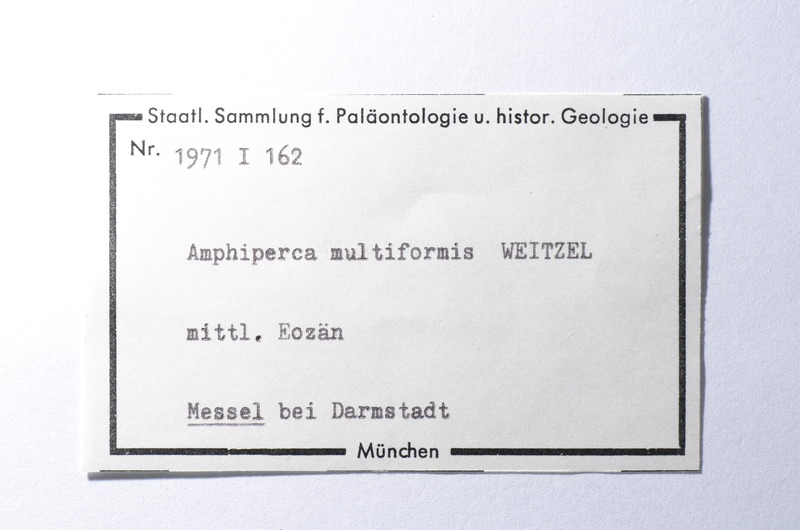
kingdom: Animalia
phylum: Chordata
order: Perciformes
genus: Amphiperca
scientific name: Amphiperca
